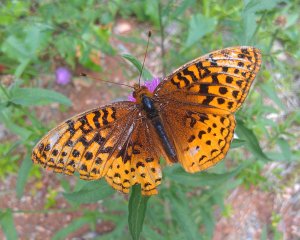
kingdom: Animalia
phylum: Arthropoda
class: Insecta
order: Lepidoptera
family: Nymphalidae
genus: Speyeria
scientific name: Speyeria cybele
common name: Great Spangled Fritillary
